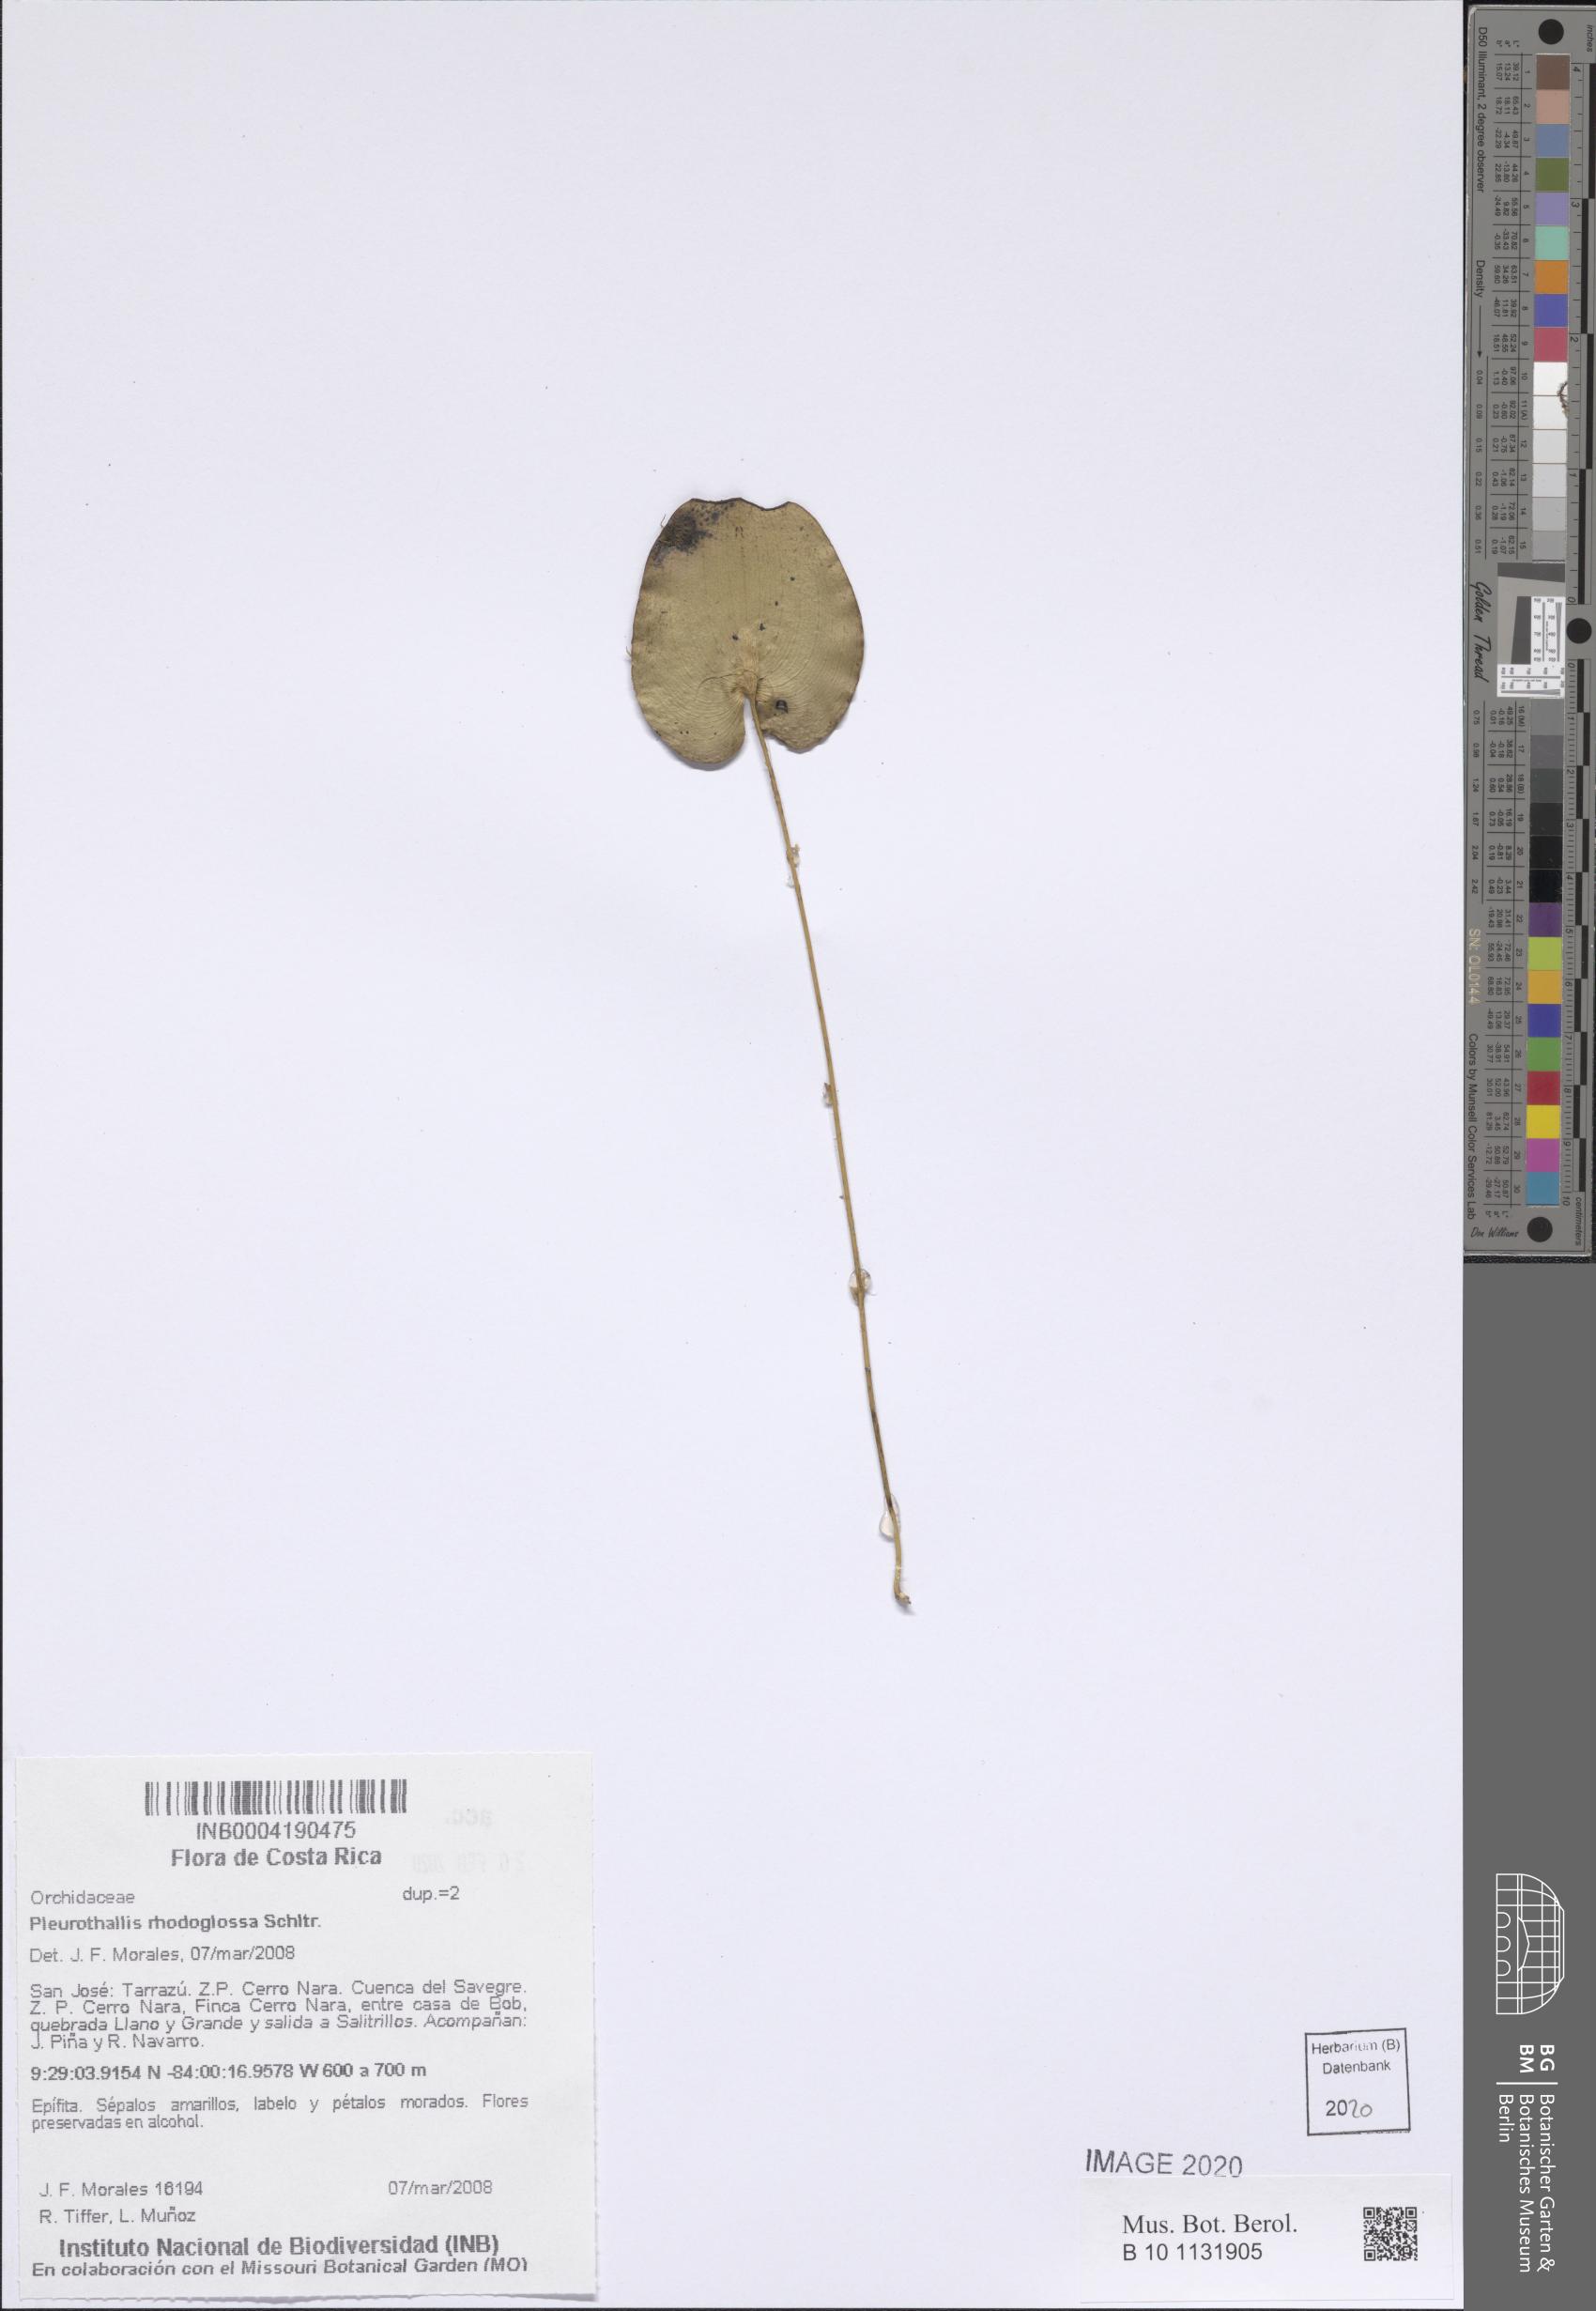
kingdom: Plantae
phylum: Tracheophyta
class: Liliopsida
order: Asparagales
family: Orchidaceae
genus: Pleurothallis
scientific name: Pleurothallis rhodoglossa
